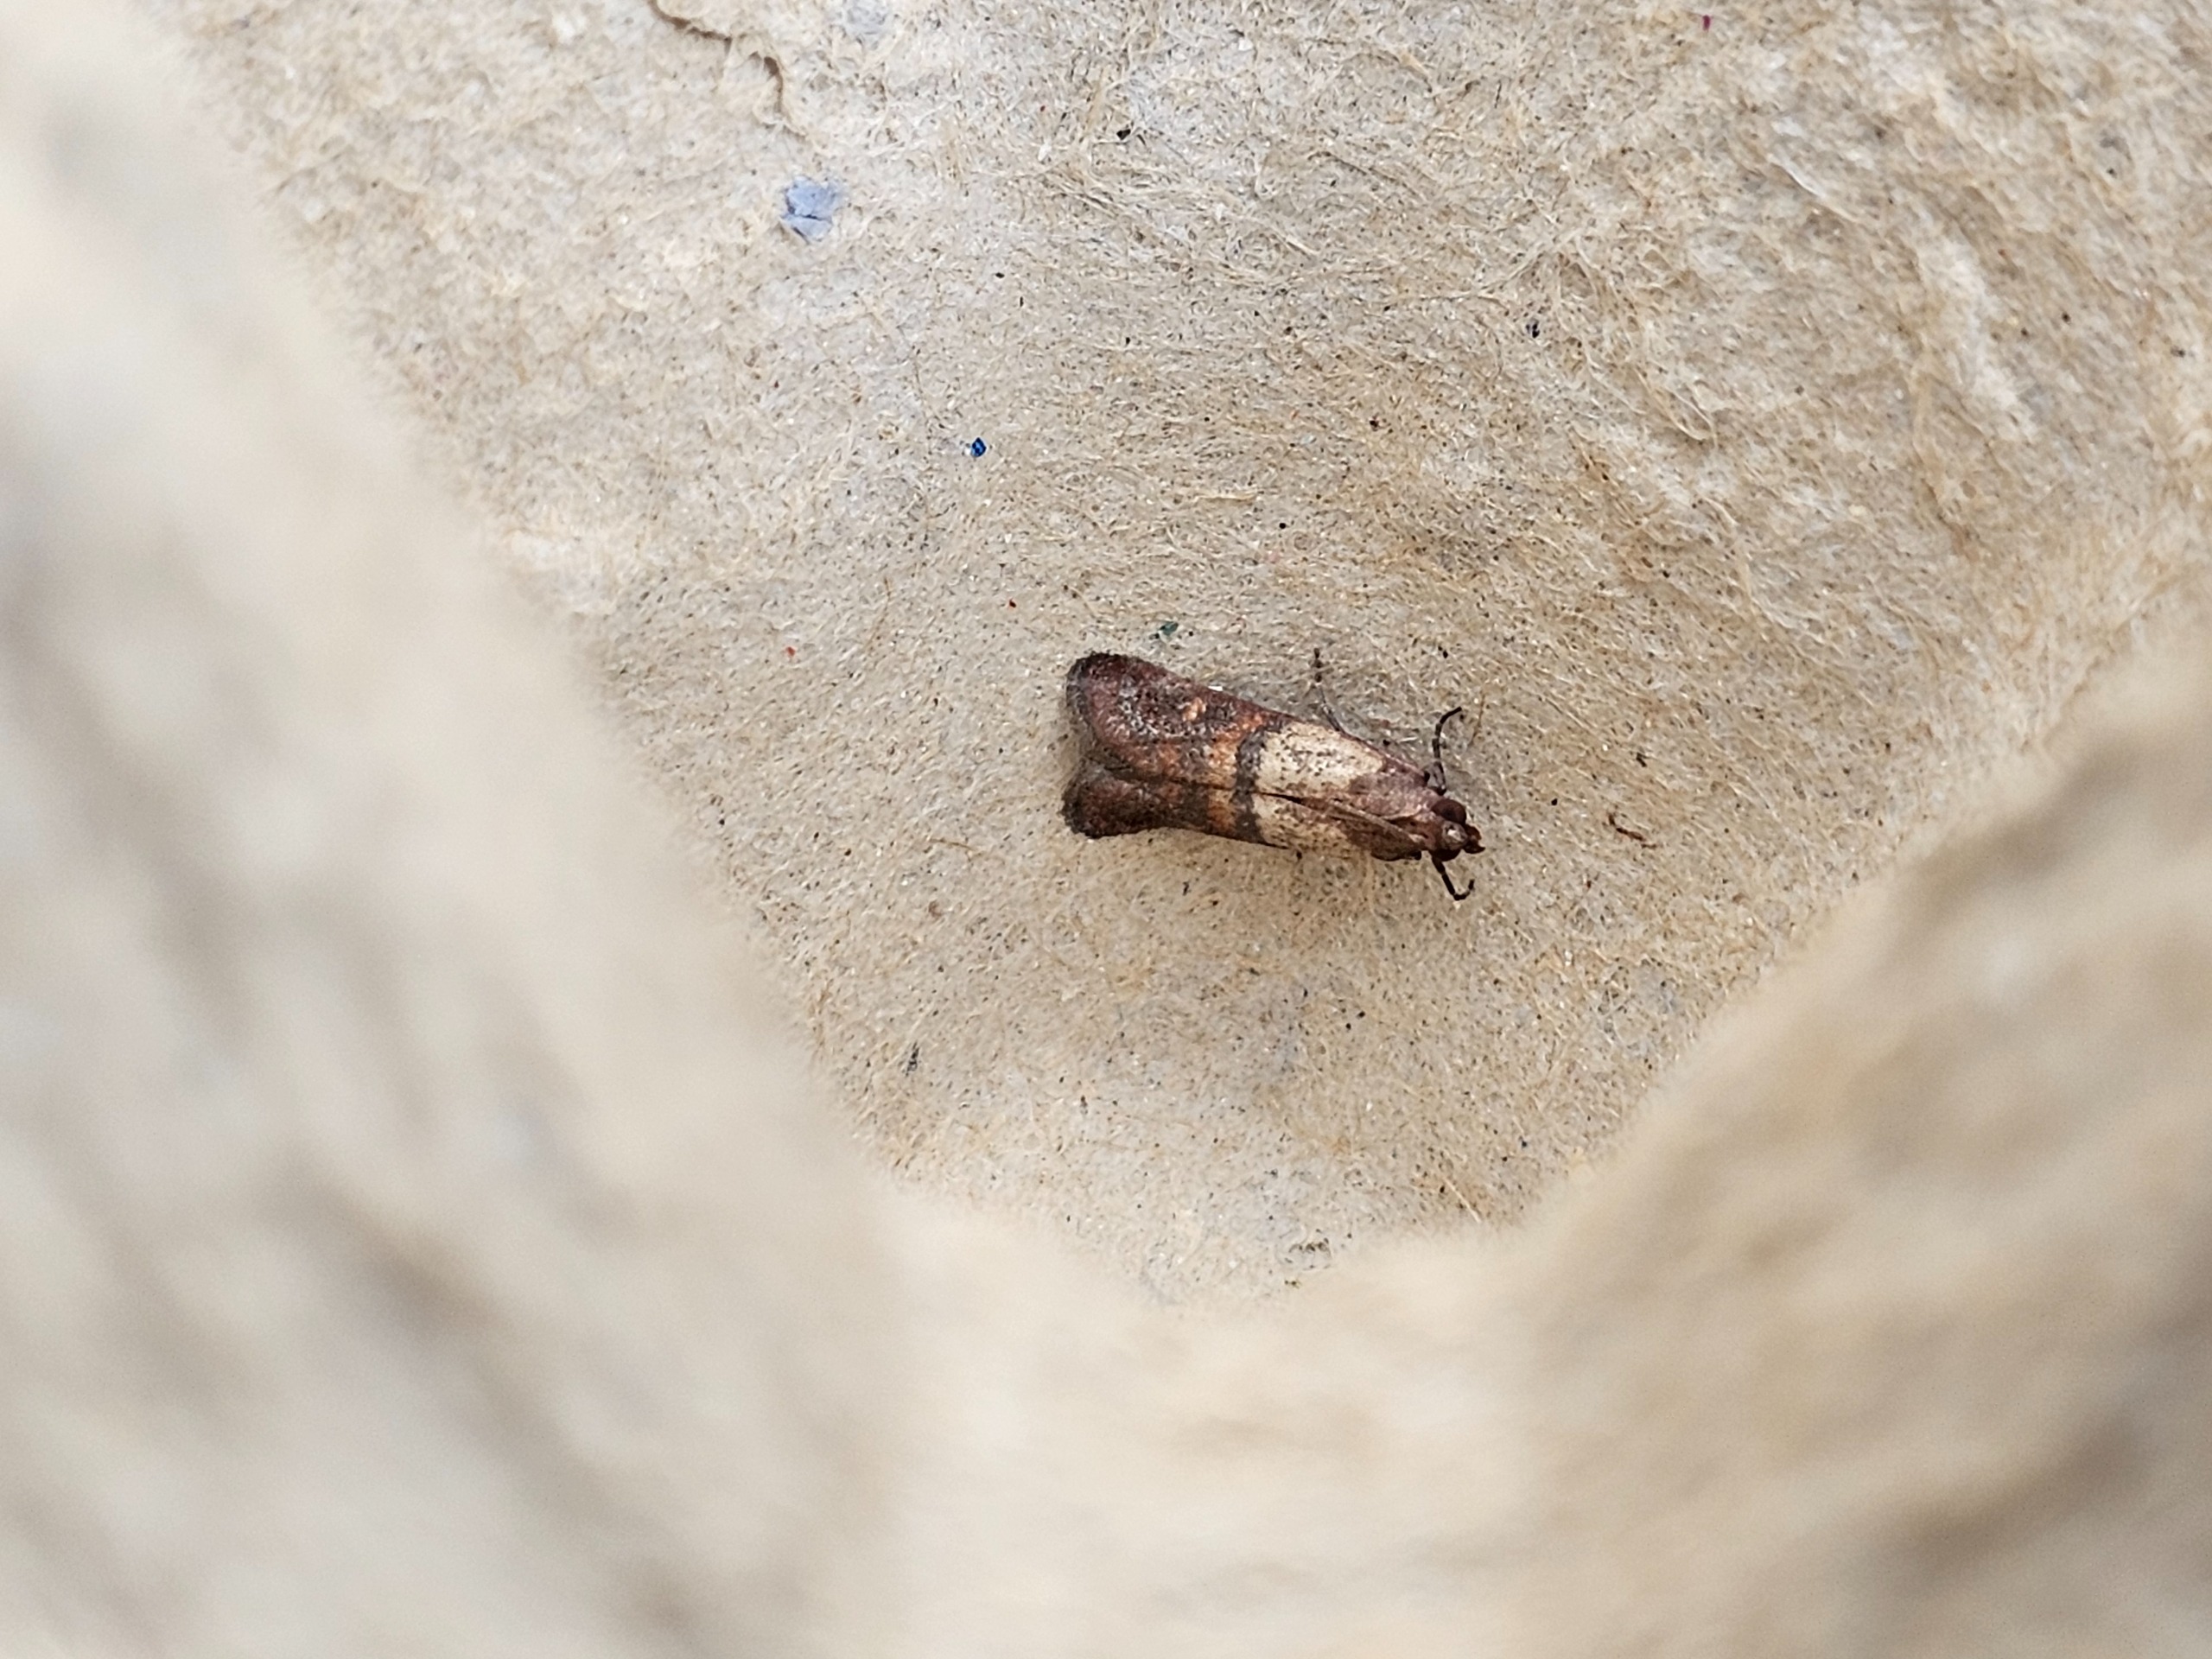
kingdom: Animalia
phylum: Arthropoda
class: Insecta
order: Lepidoptera
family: Pyralidae
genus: Plodia
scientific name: Plodia interpunctella
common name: Tofarvet frømøl
